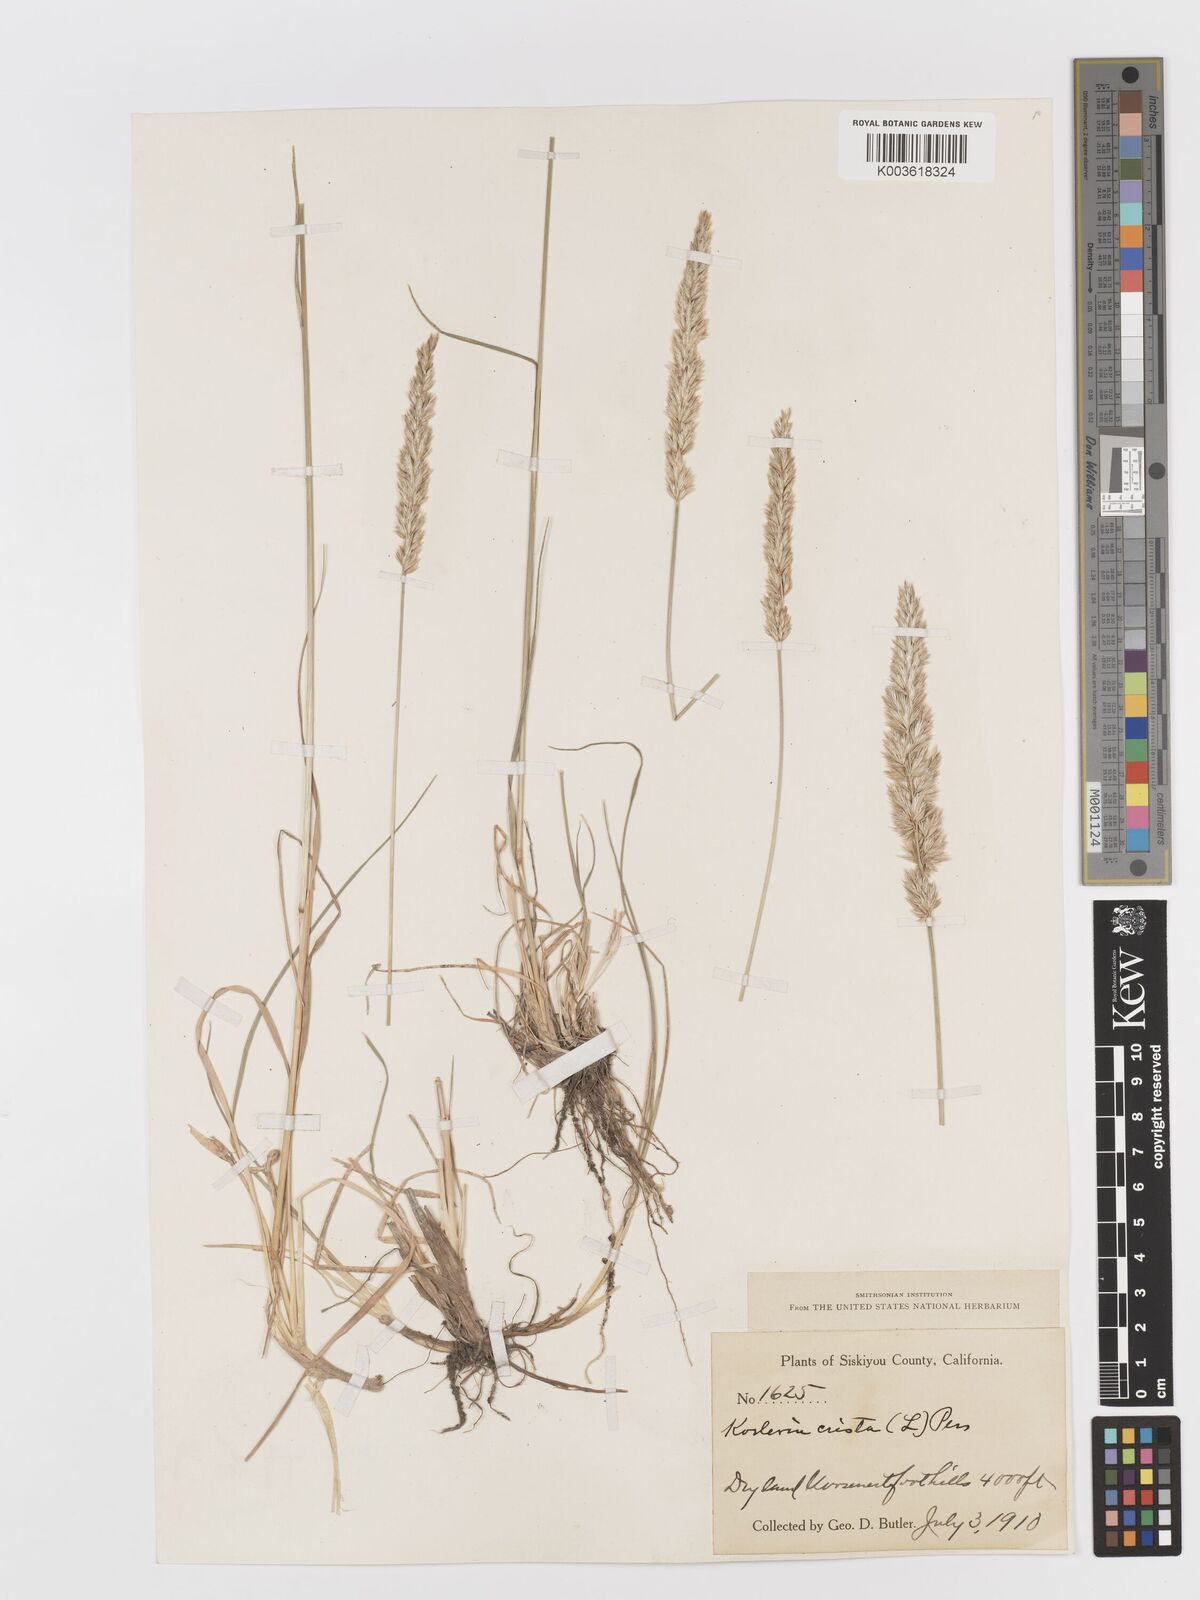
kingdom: Plantae
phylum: Tracheophyta
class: Liliopsida
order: Poales
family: Poaceae
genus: Koeleria
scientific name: Koeleria
